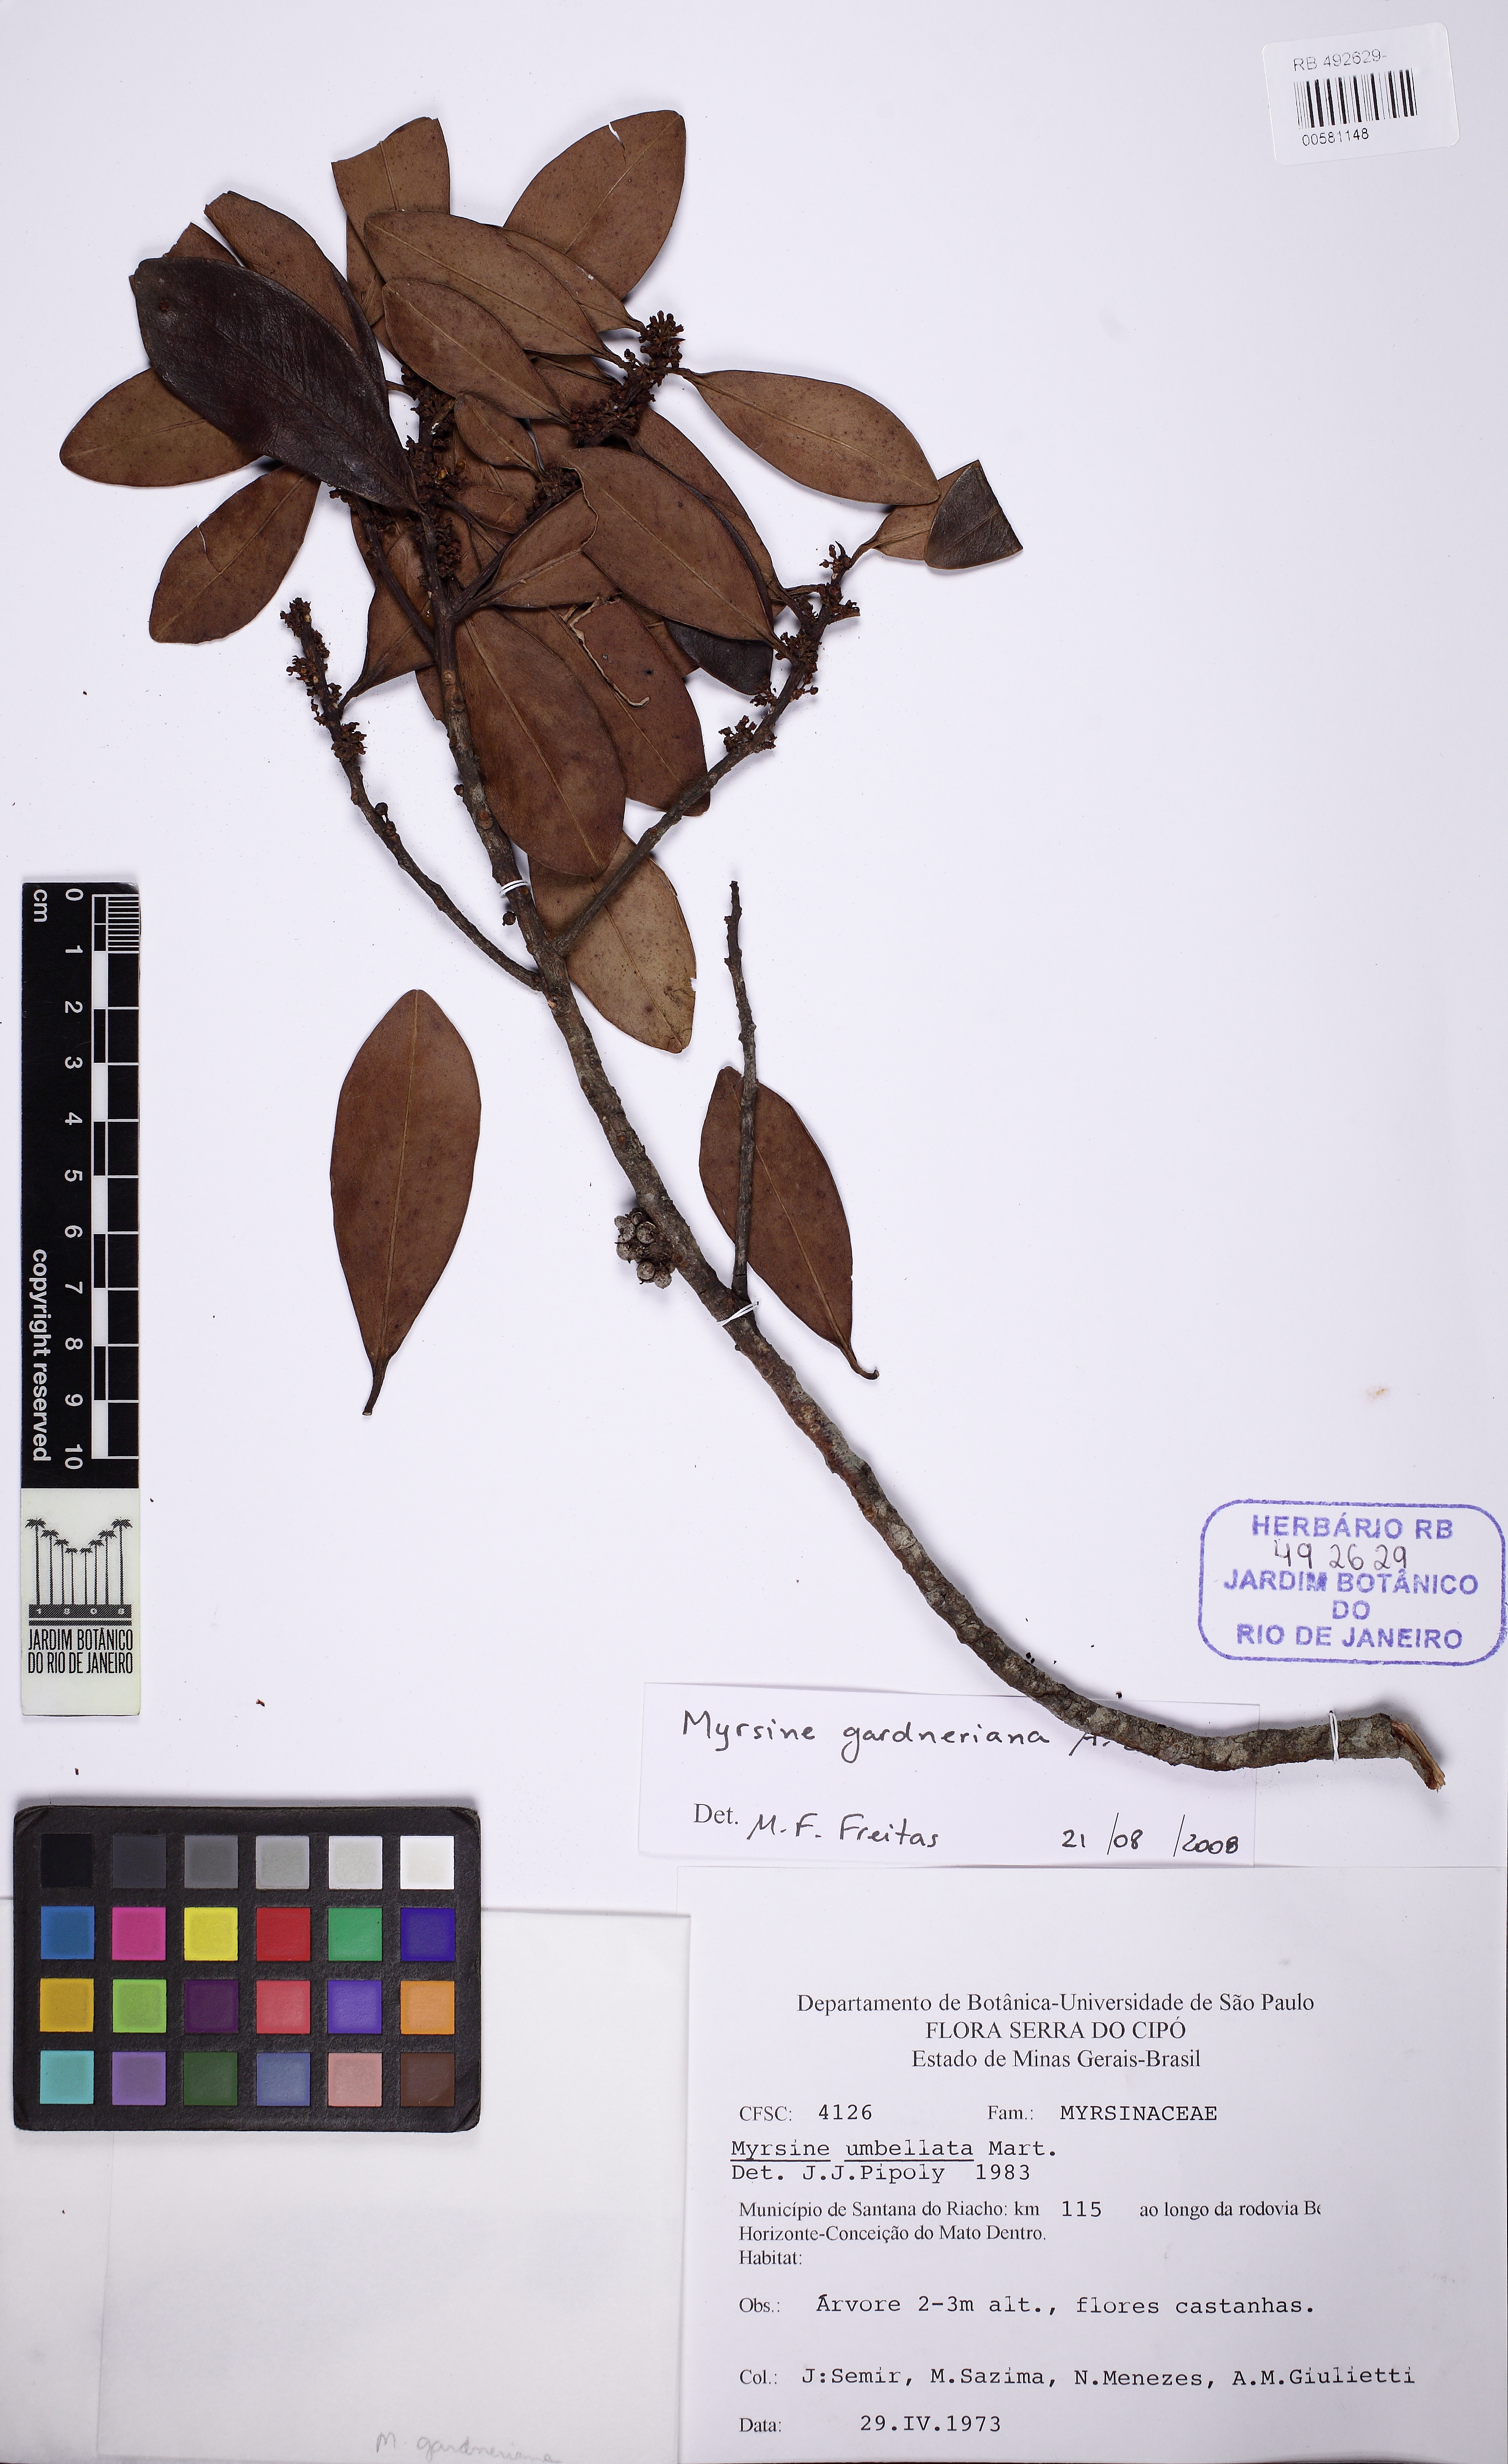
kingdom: Plantae
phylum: Tracheophyta
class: Magnoliopsida
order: Ericales
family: Primulaceae
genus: Myrsine
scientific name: Myrsine gardneriana
